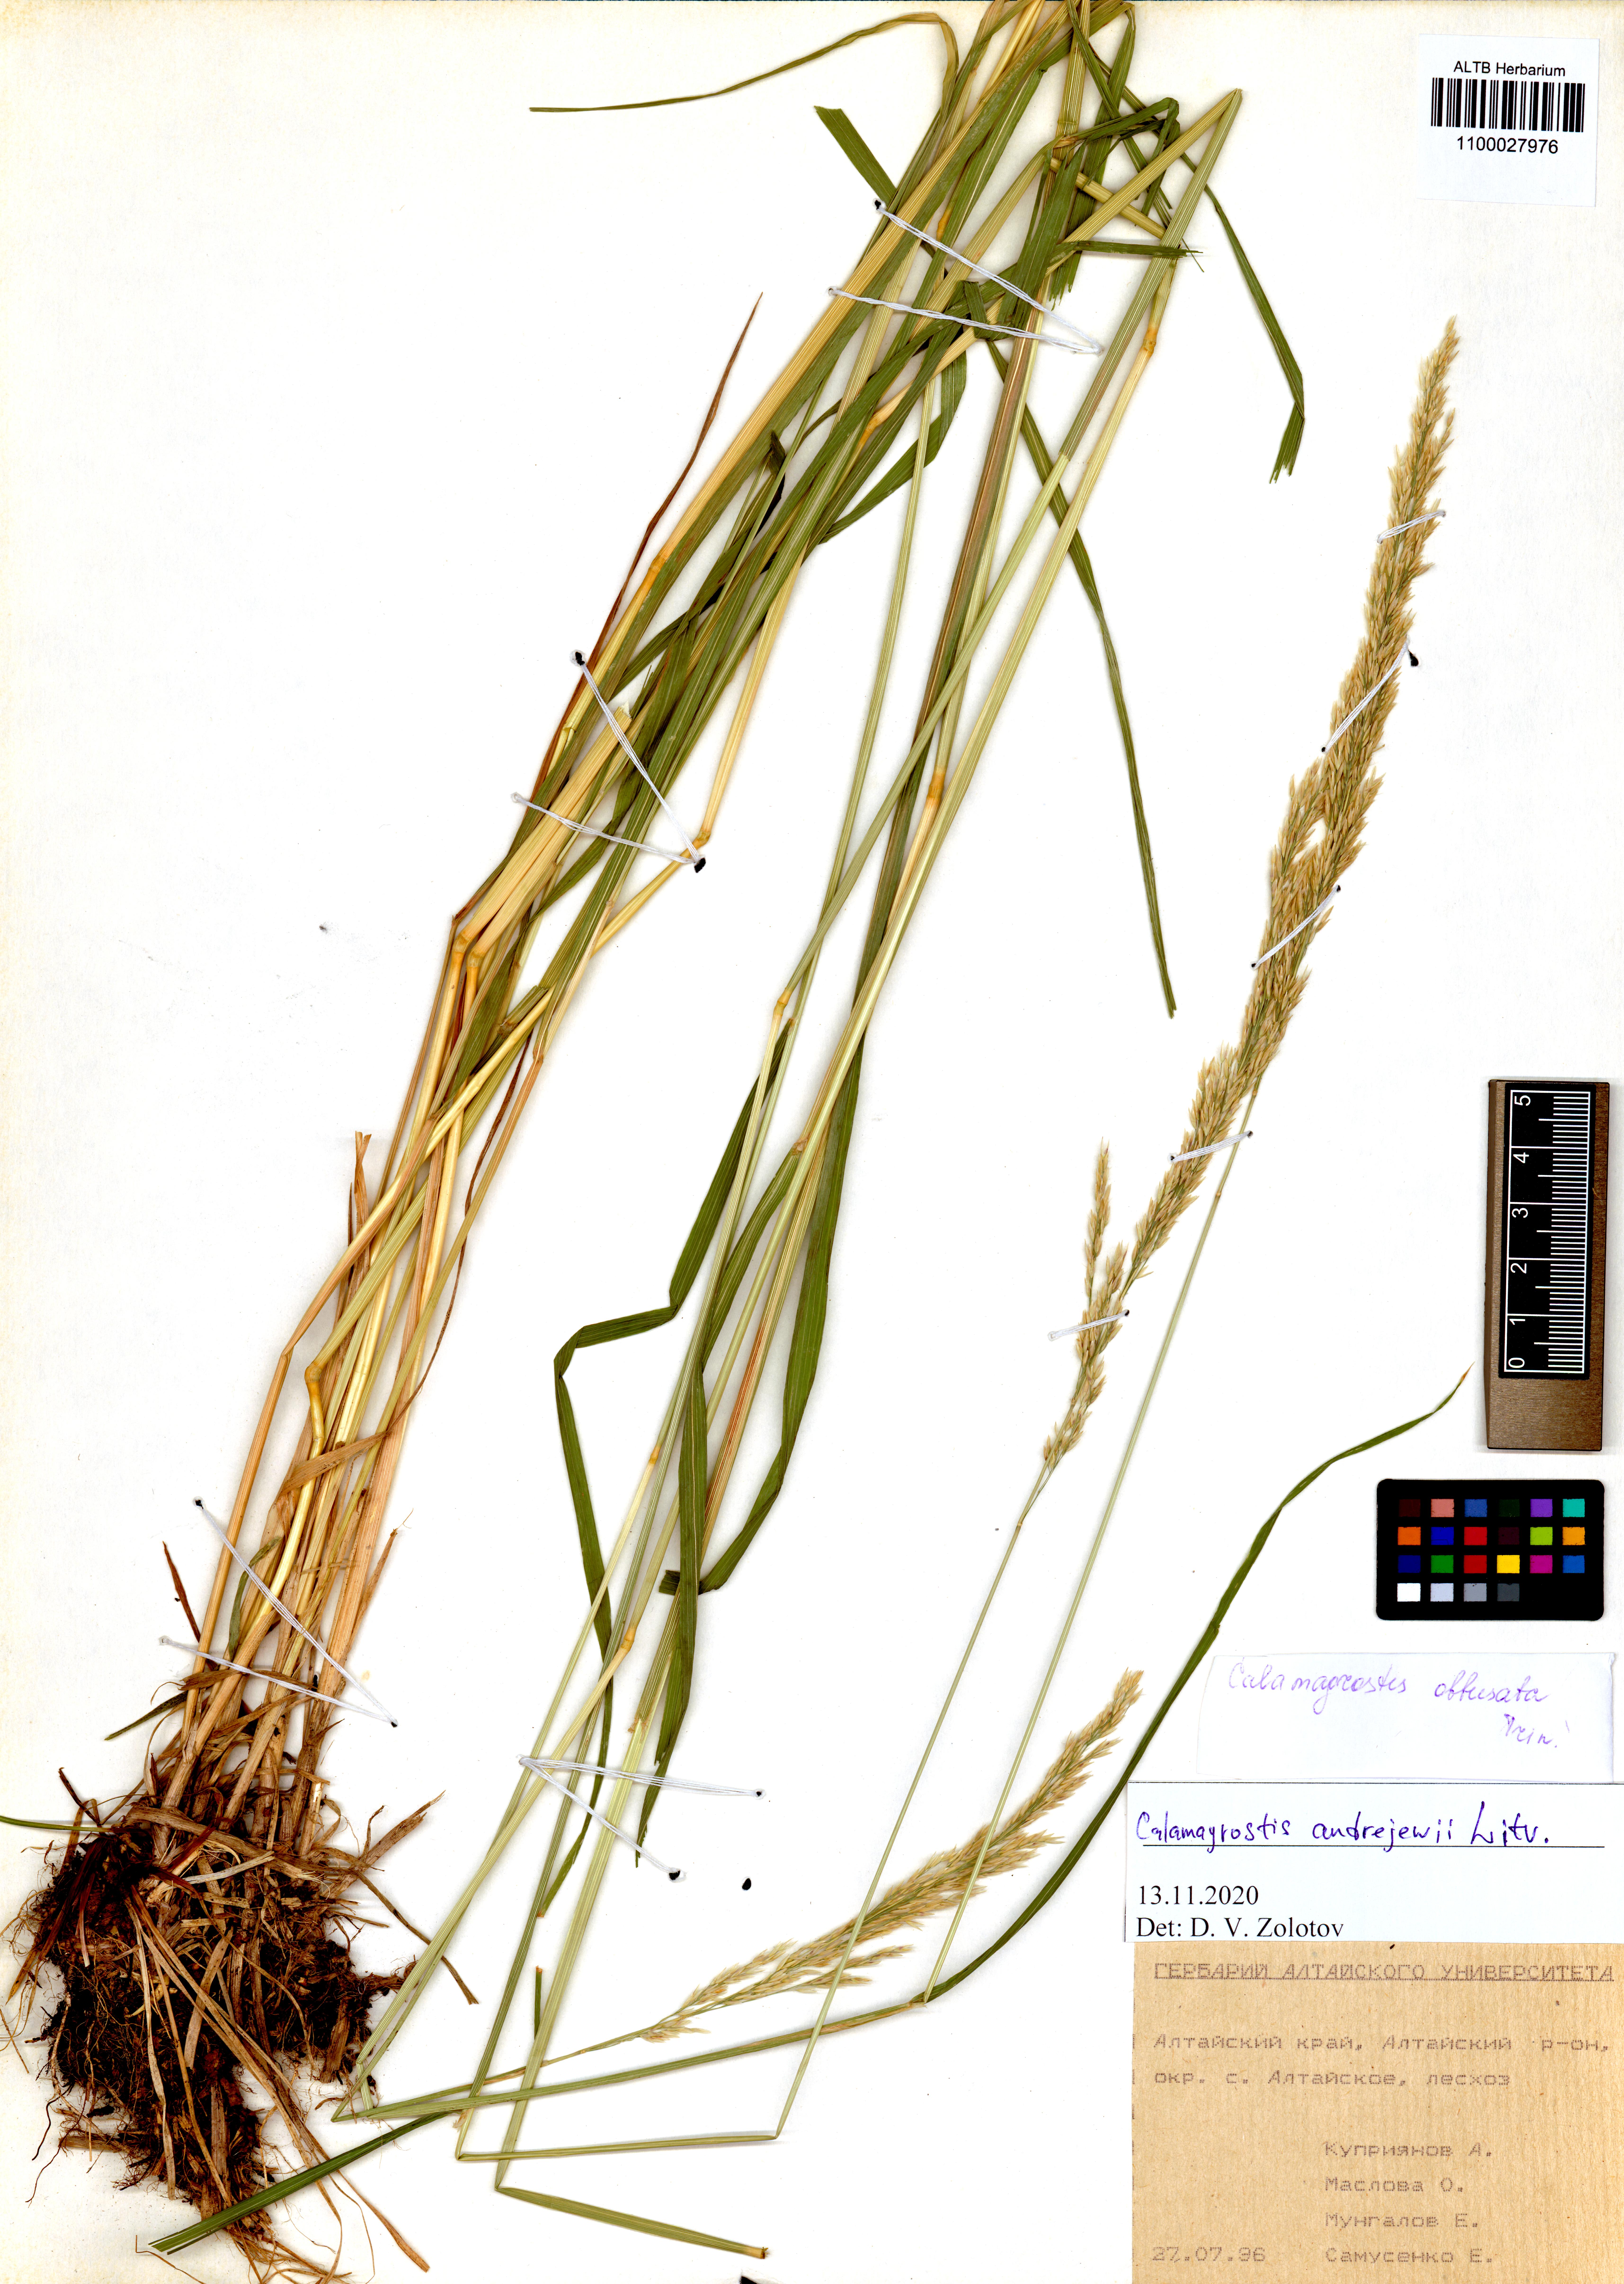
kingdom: Plantae
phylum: Tracheophyta
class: Liliopsida
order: Poales
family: Poaceae
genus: Calamagrostis
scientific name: Calamagrostis andrejewii
